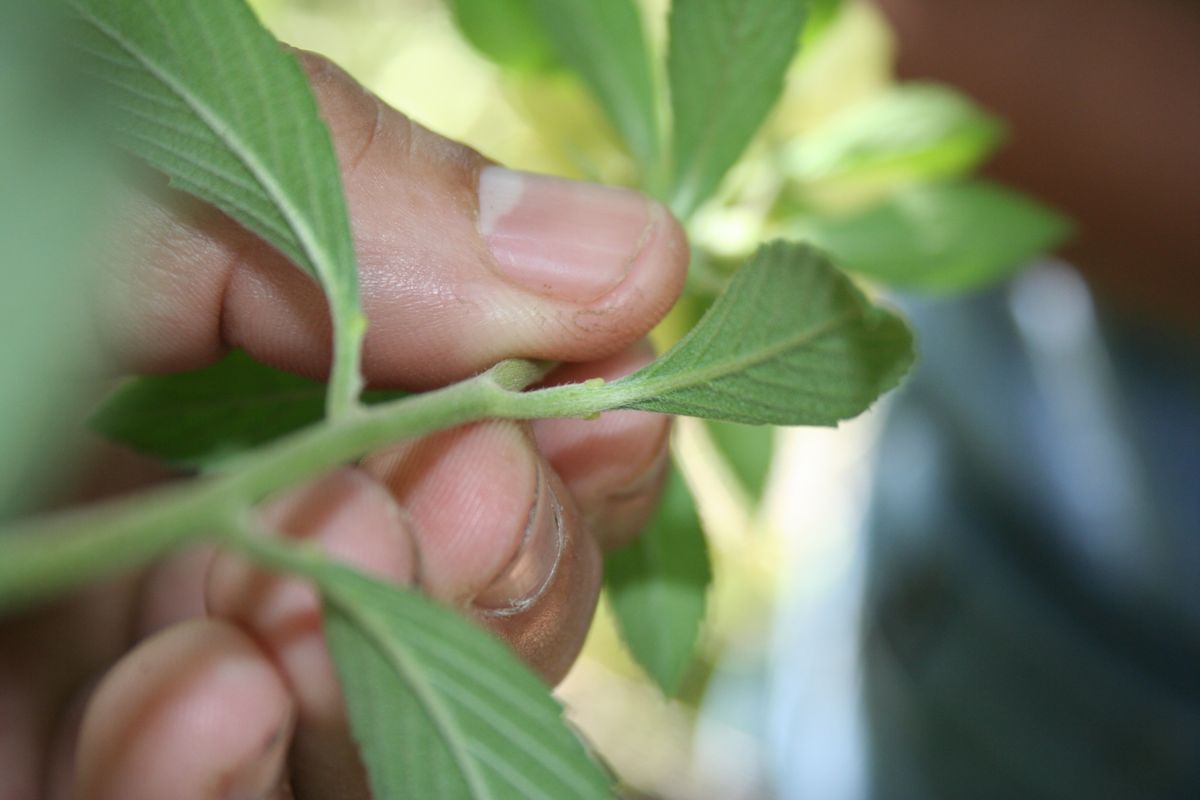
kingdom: Plantae
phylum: Tracheophyta
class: Magnoliopsida
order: Malpighiales
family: Turneraceae
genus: Turnera
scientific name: Turnera scabra
